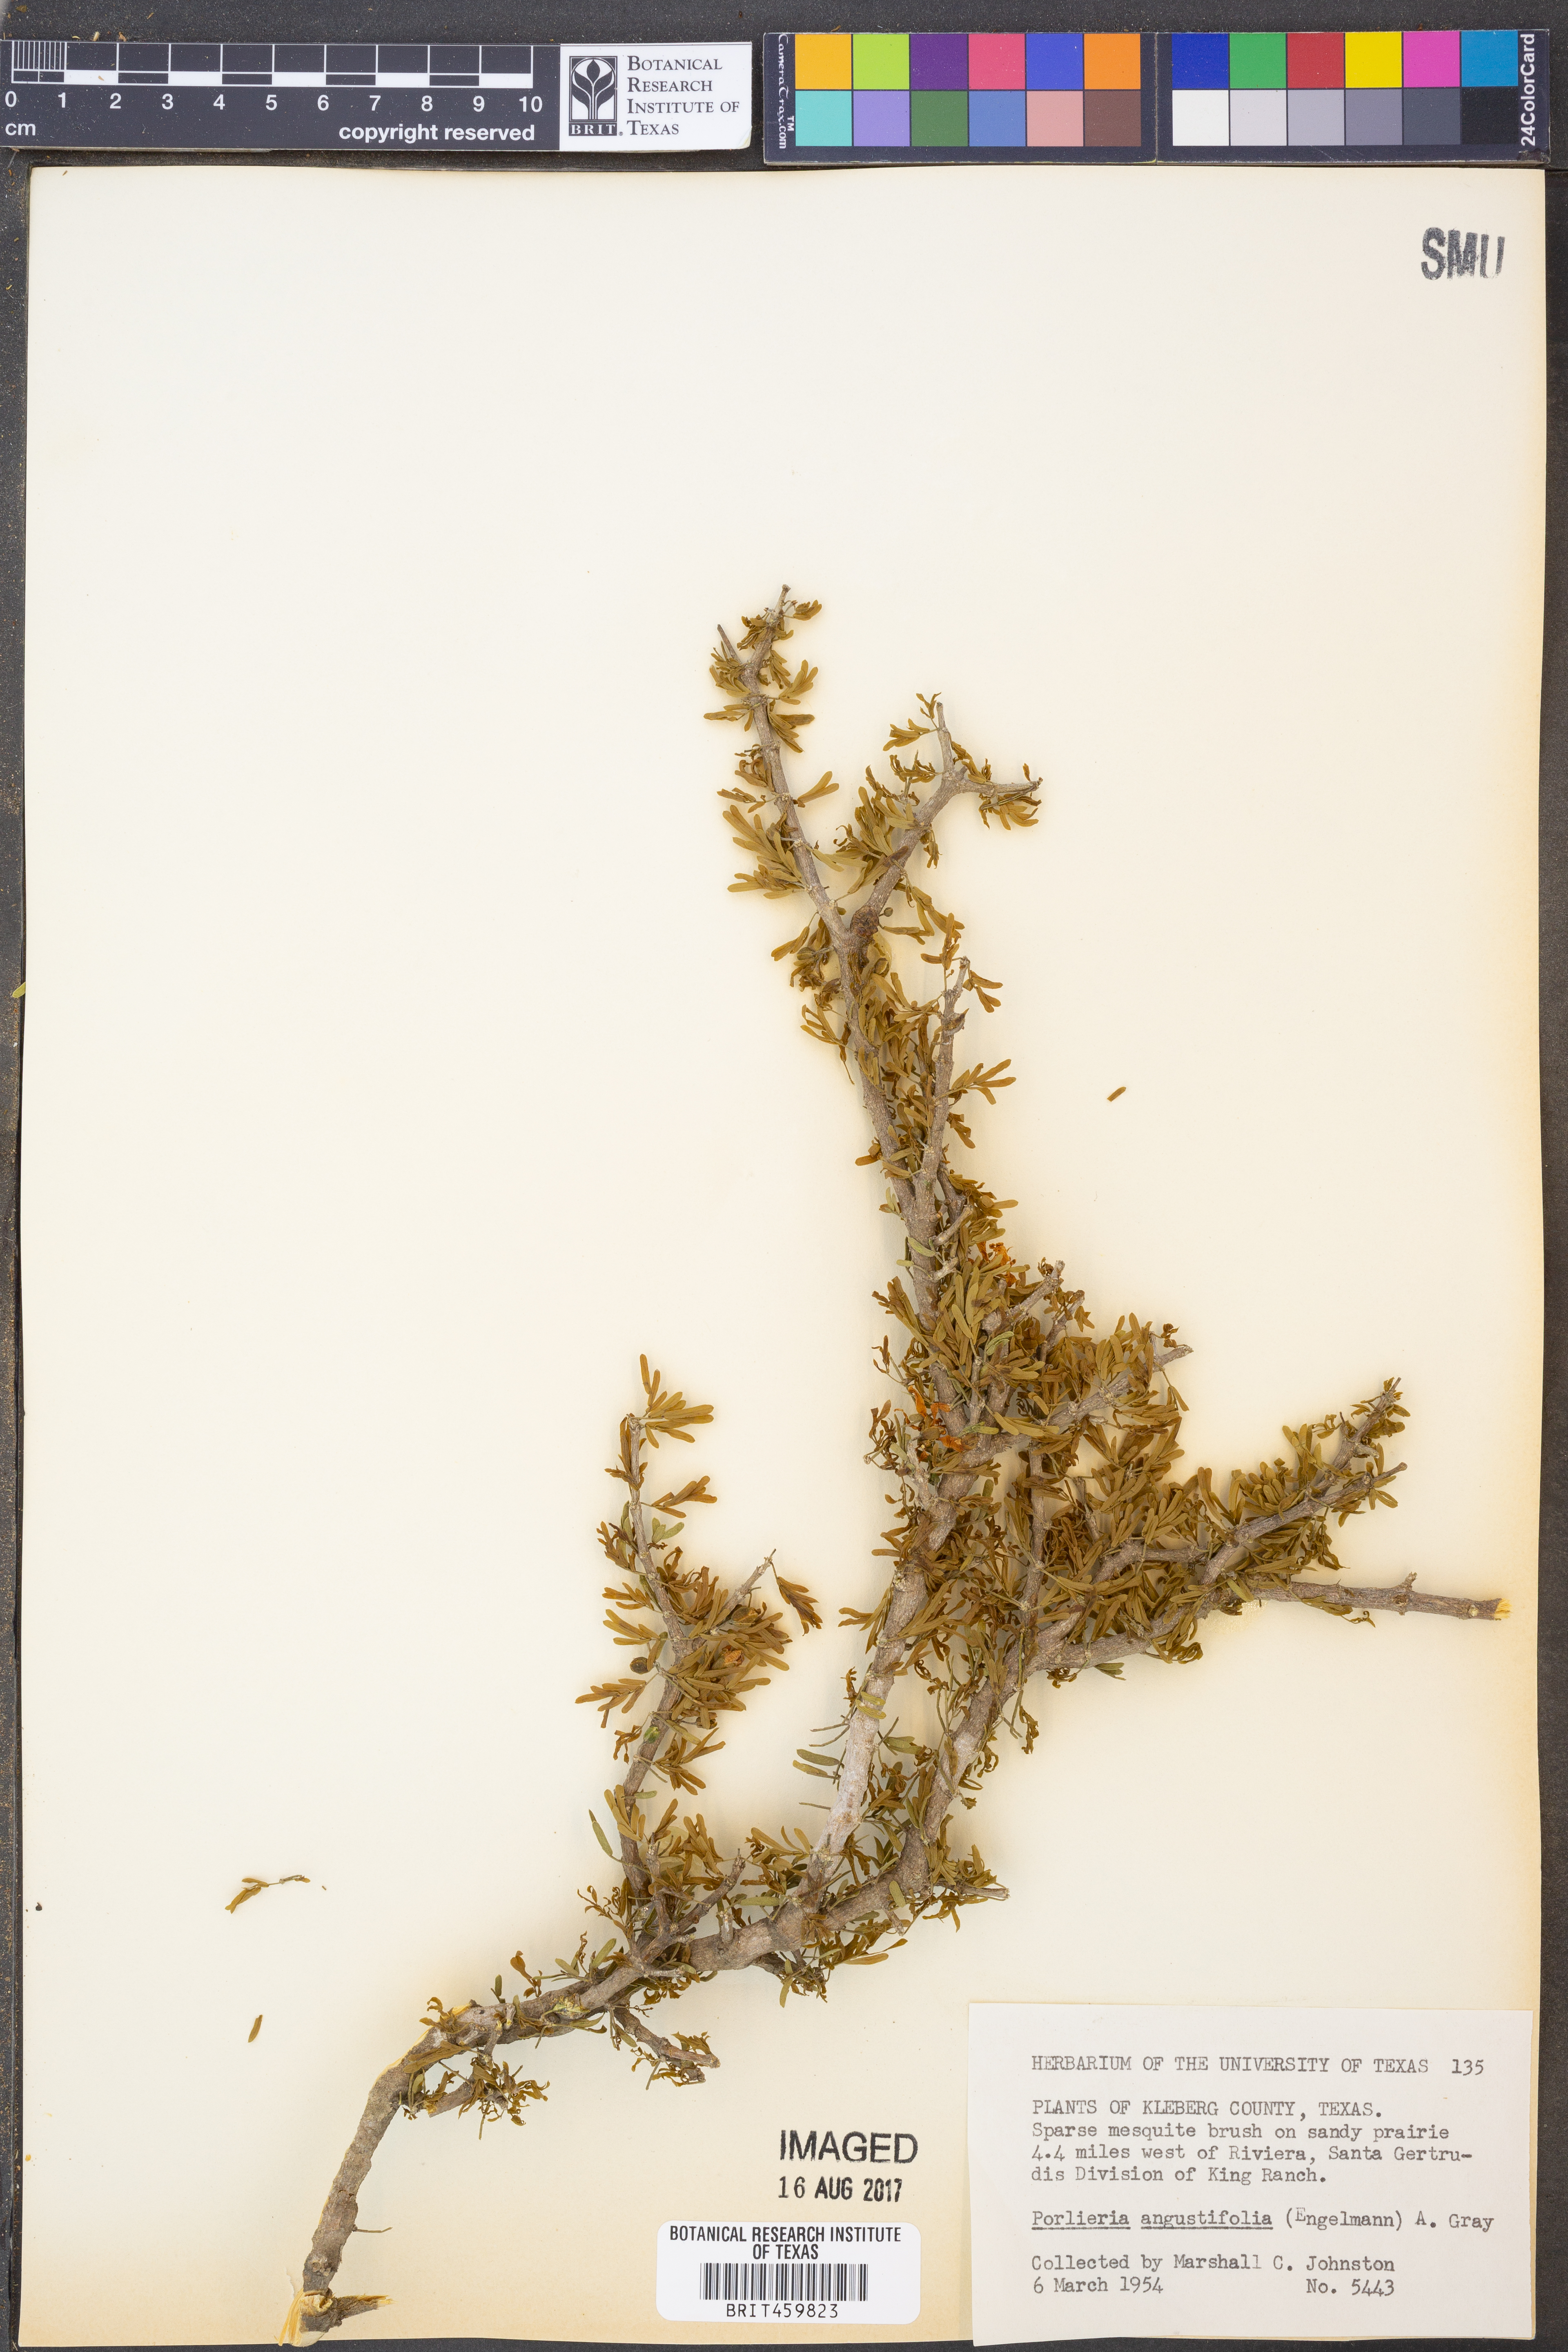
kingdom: Plantae
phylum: Tracheophyta
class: Magnoliopsida
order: Zygophyllales
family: Zygophyllaceae
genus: Porlieria
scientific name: Porlieria angustifolia
